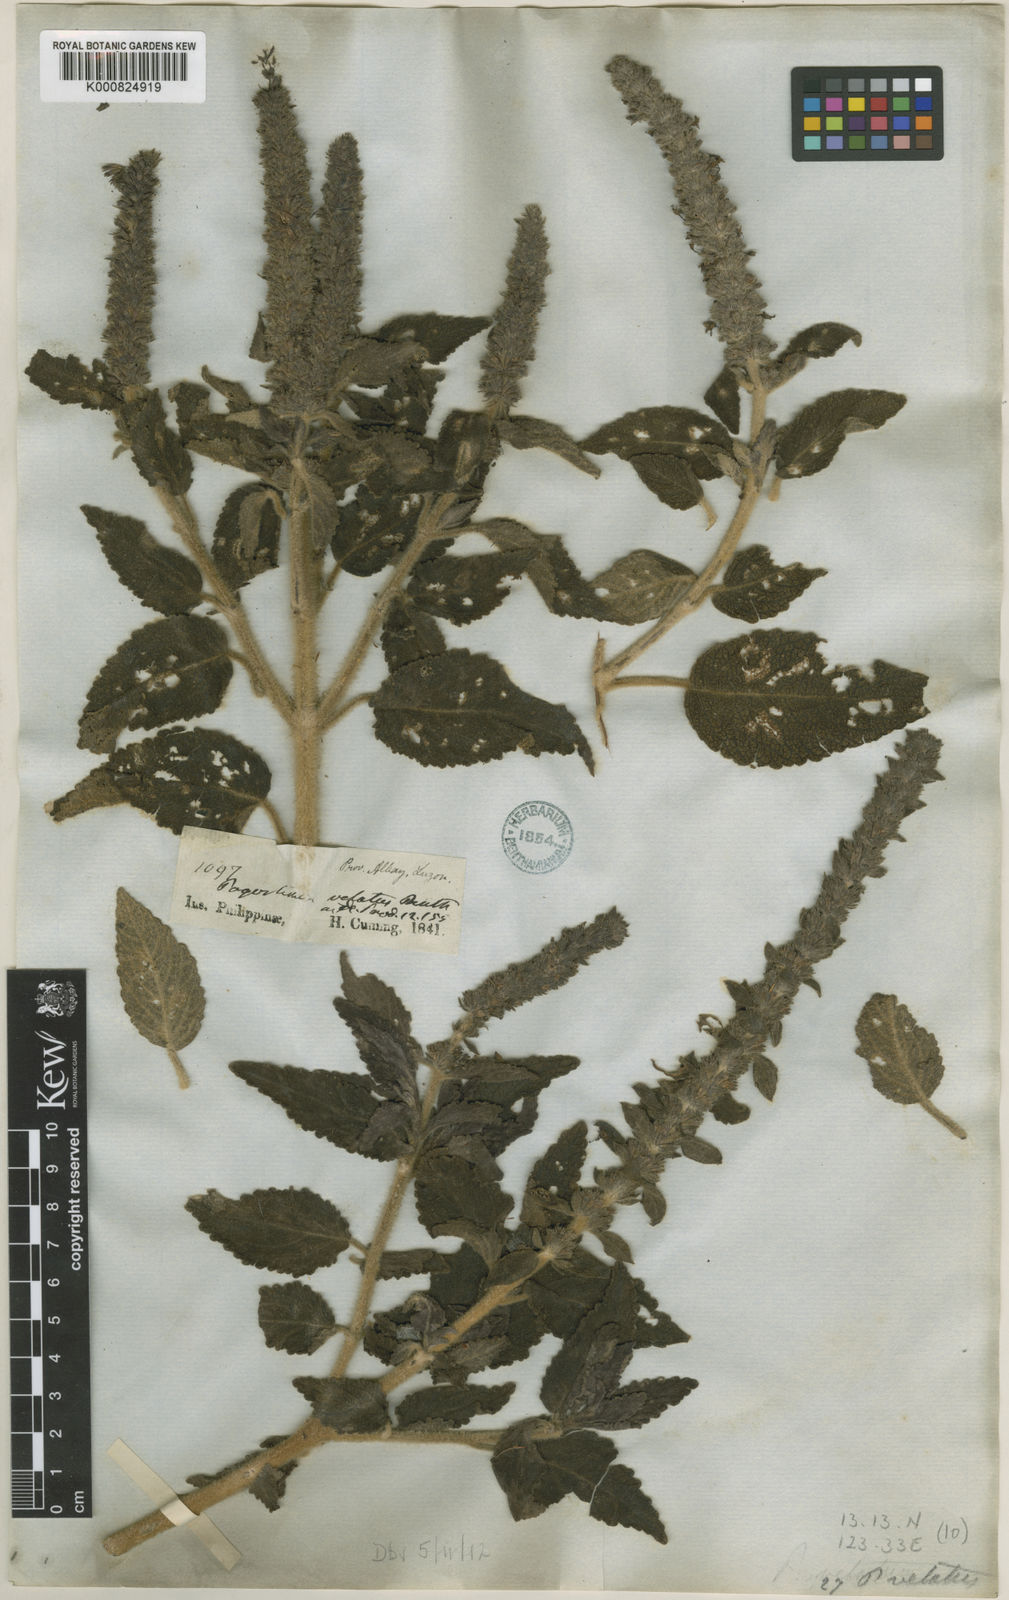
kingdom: Plantae
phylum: Tracheophyta
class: Magnoliopsida
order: Lamiales
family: Lamiaceae
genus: Pogostemon
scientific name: Pogostemon velatus
